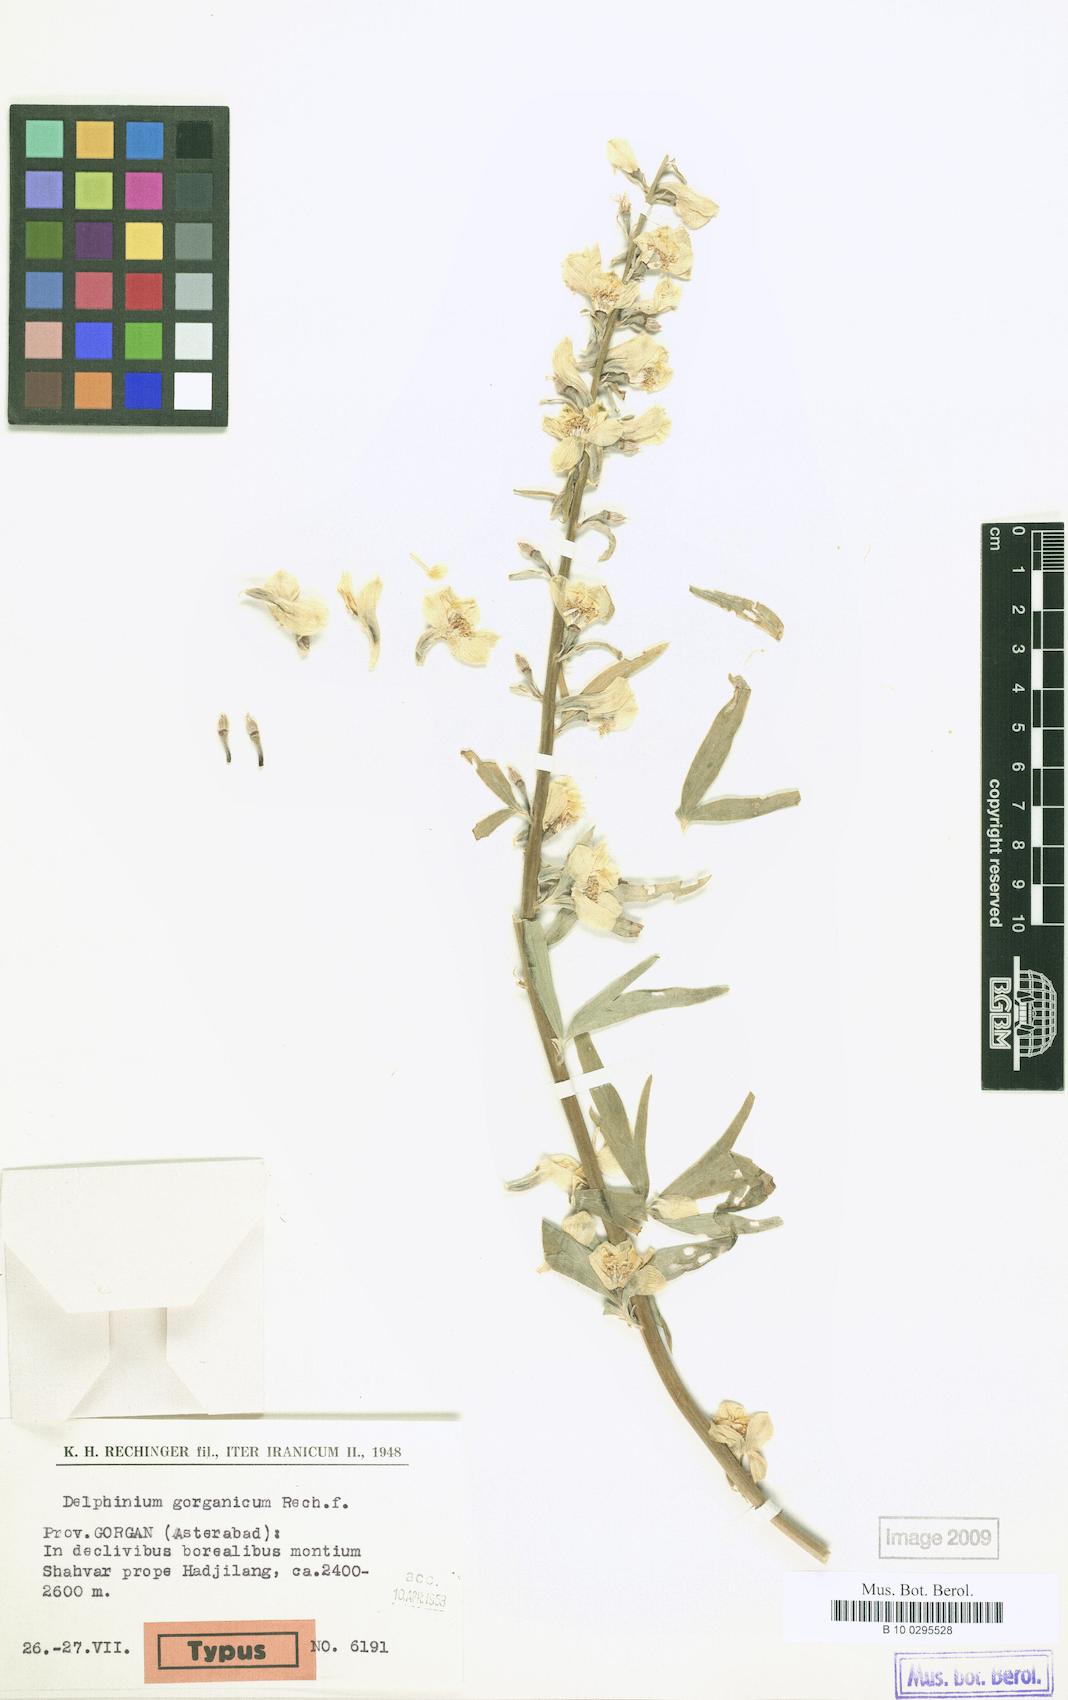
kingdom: Plantae
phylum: Tracheophyta
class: Magnoliopsida
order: Ranunculales
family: Ranunculaceae
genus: Delphinium
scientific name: Delphinium biternatum
